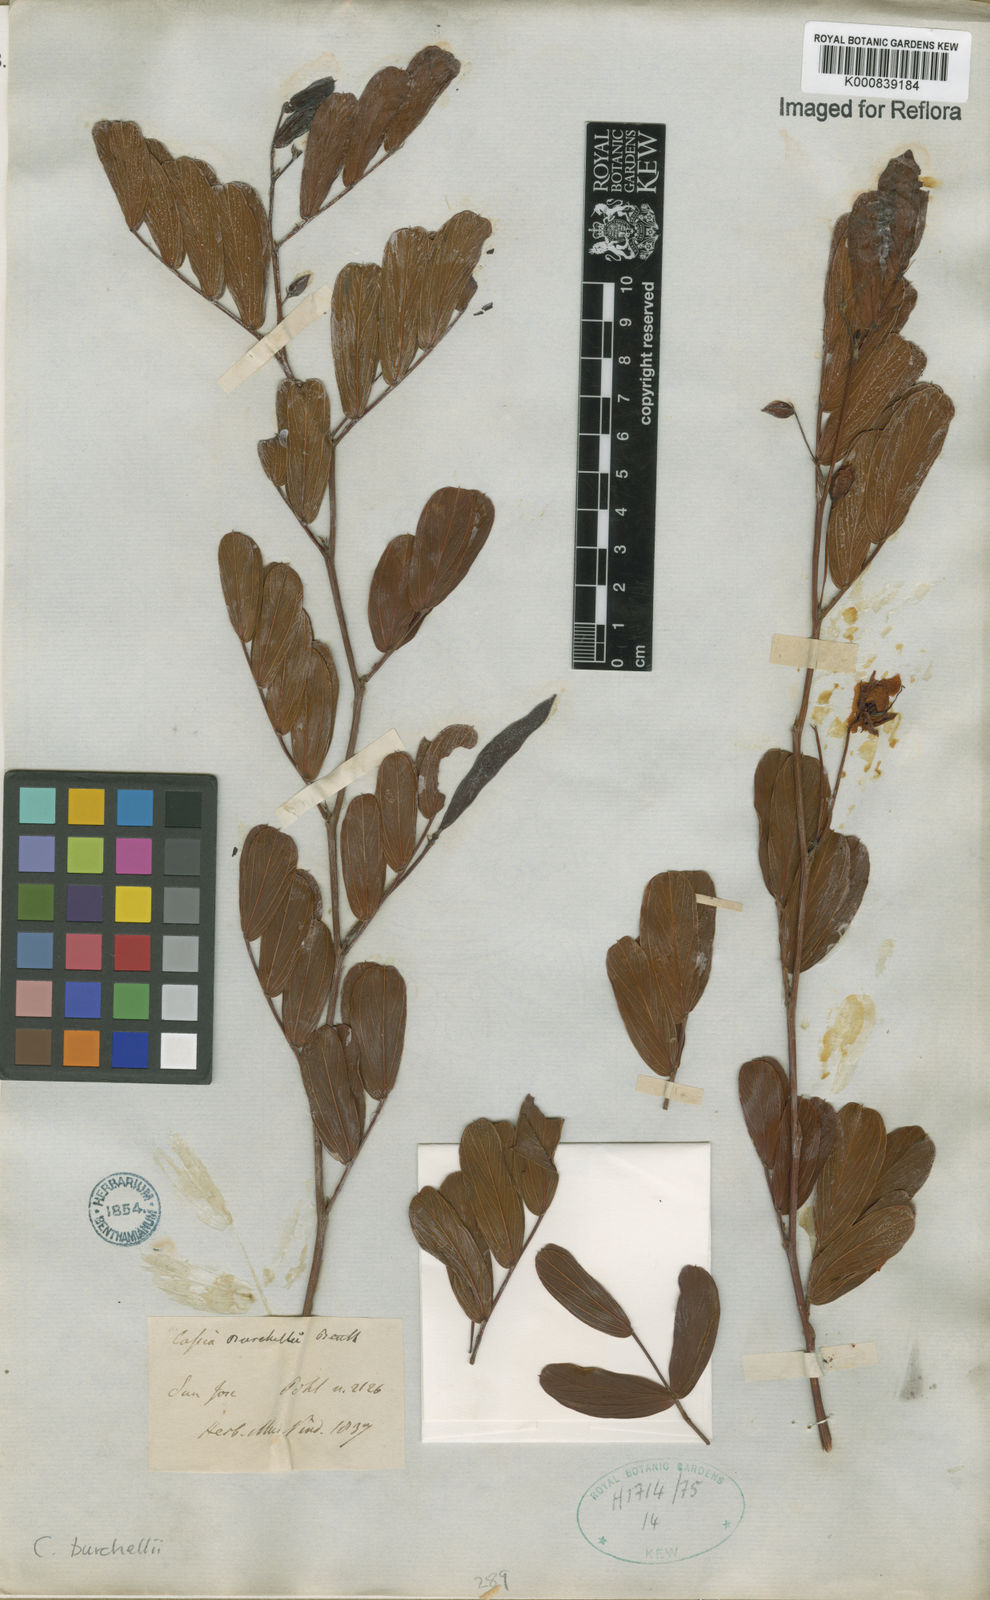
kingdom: Plantae
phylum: Tracheophyta
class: Magnoliopsida
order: Fabales
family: Fabaceae
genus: Chamaecrista
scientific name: Chamaecrista burchellii
